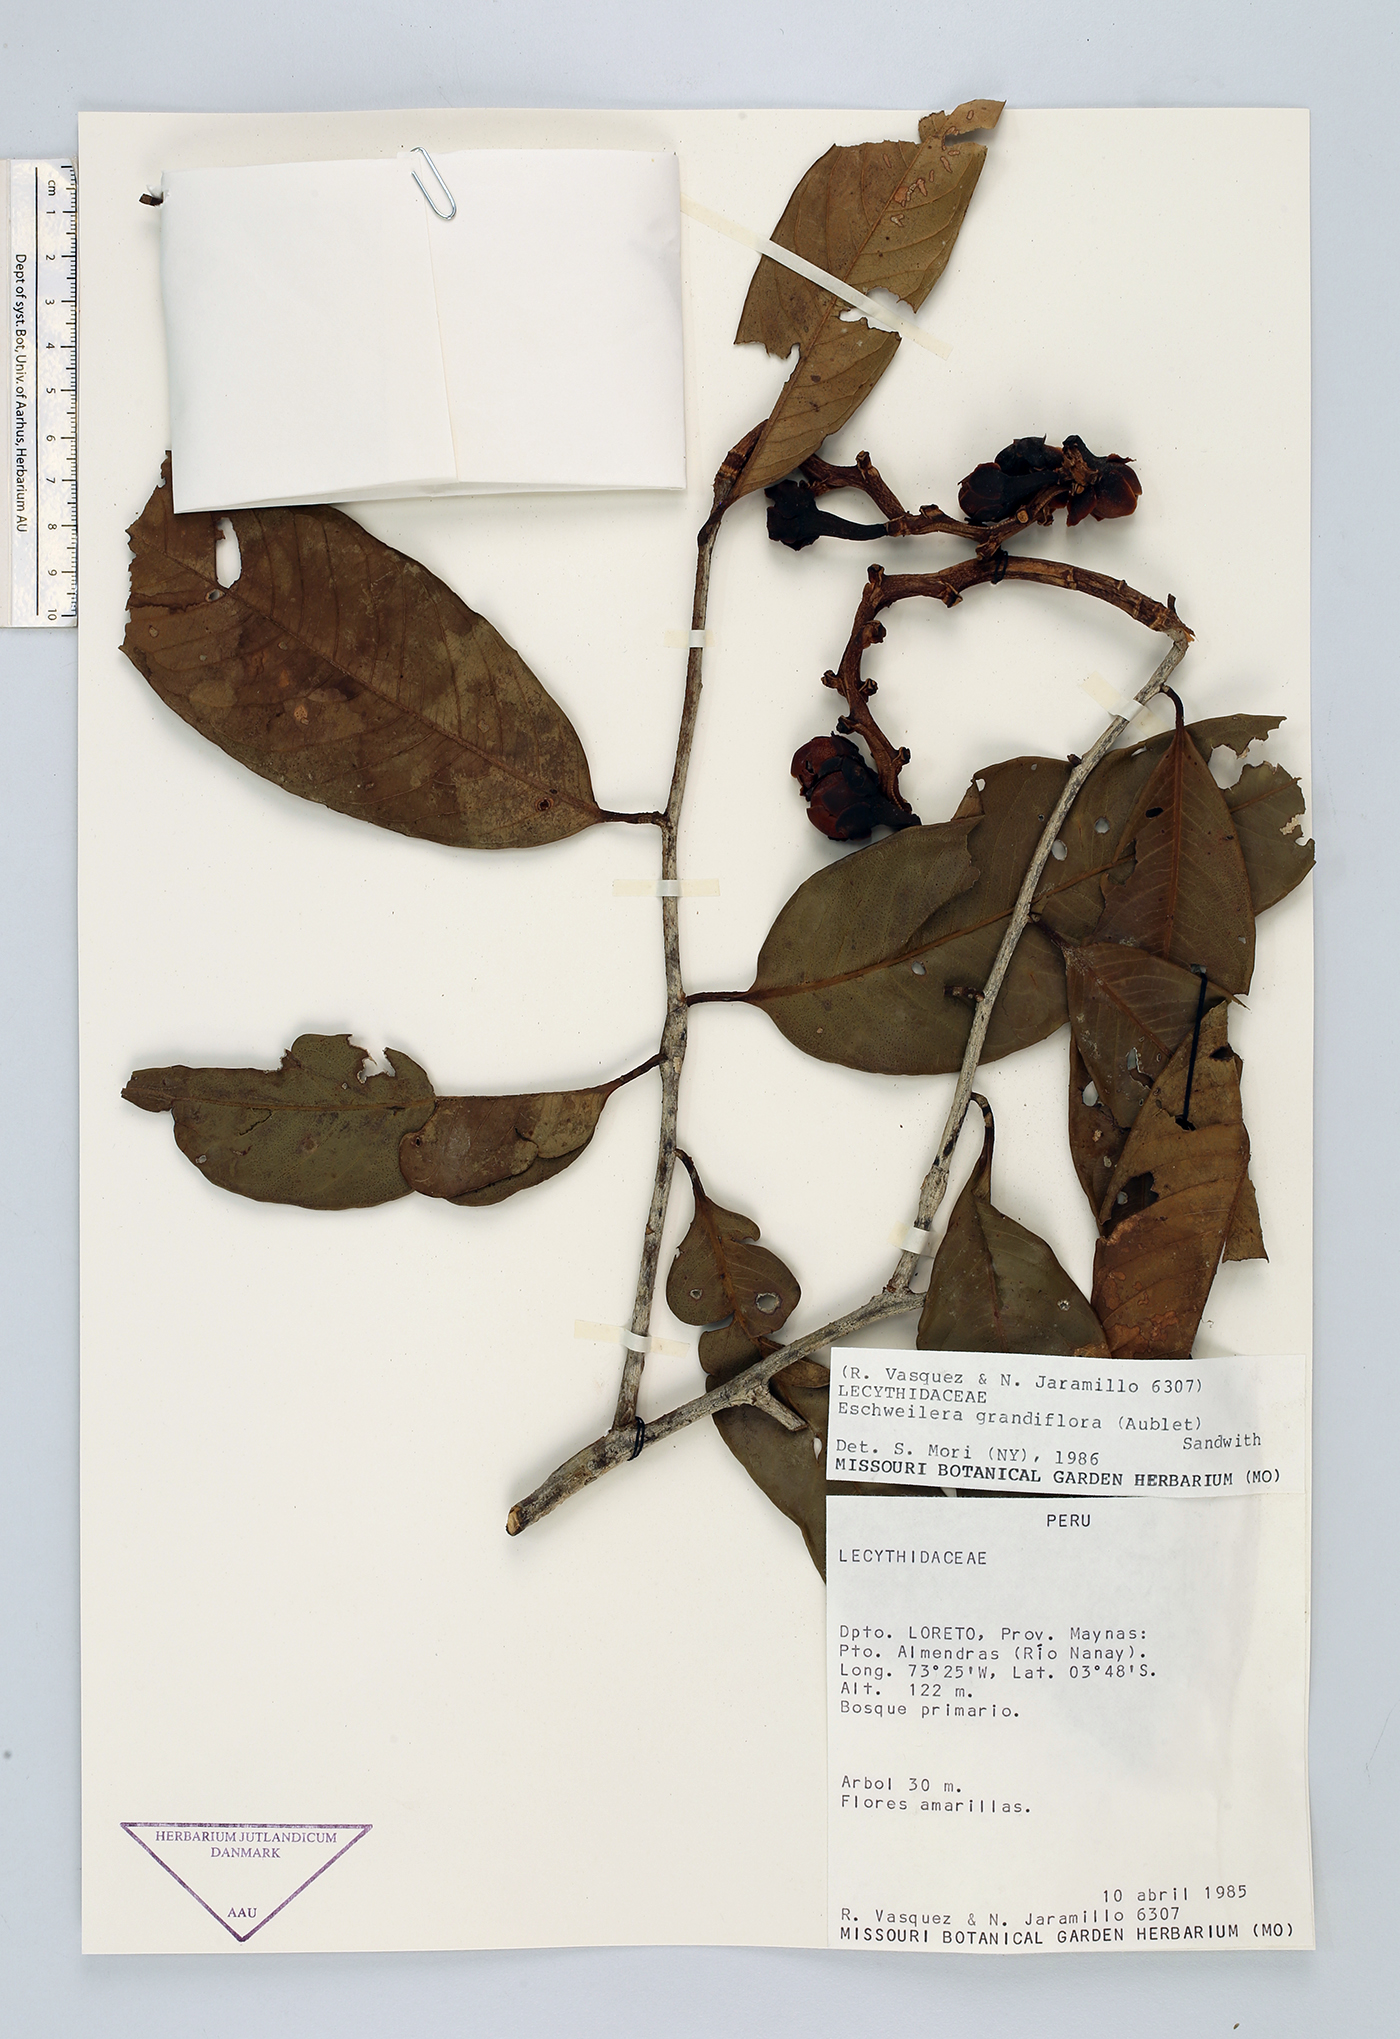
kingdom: Plantae
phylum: Tracheophyta
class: Magnoliopsida
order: Ericales
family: Lecythidaceae
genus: Eschweilera
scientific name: Eschweilera grandiflora
